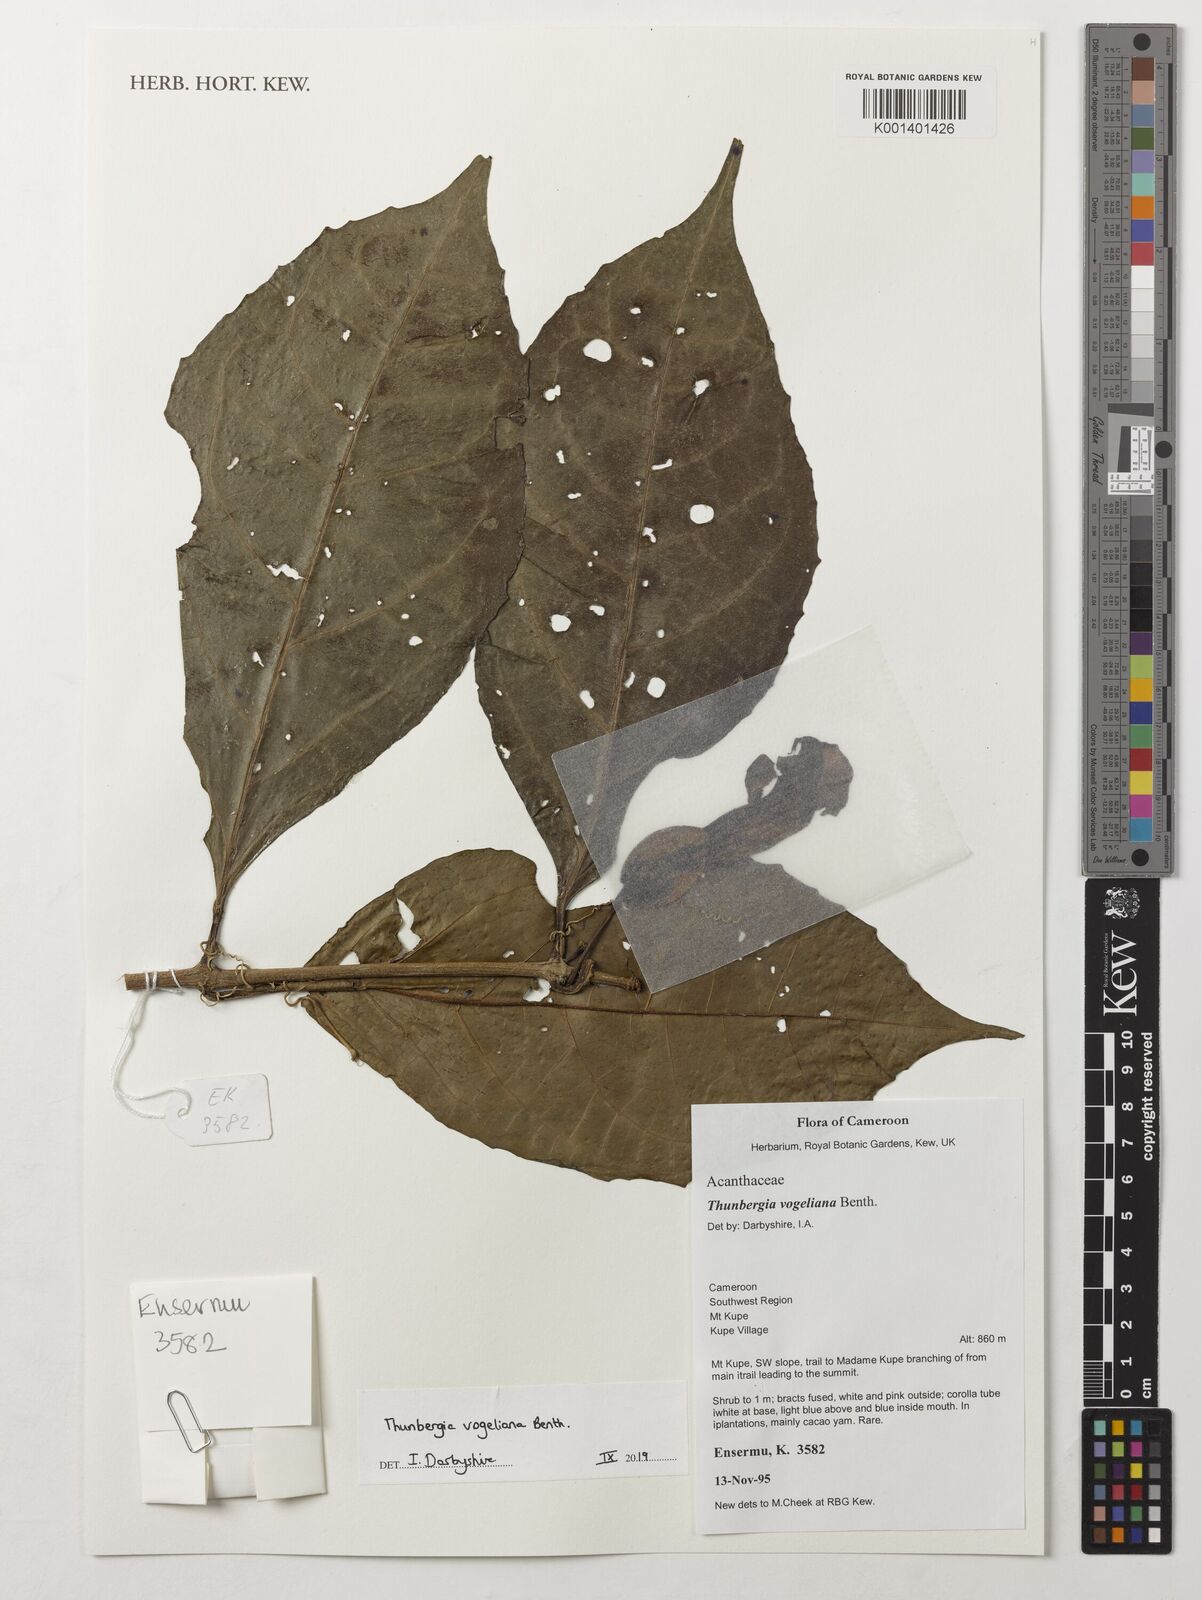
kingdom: Plantae
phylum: Tracheophyta
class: Magnoliopsida
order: Lamiales
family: Acanthaceae
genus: Thunbergia
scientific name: Thunbergia vogeliana
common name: Acanthaceae
